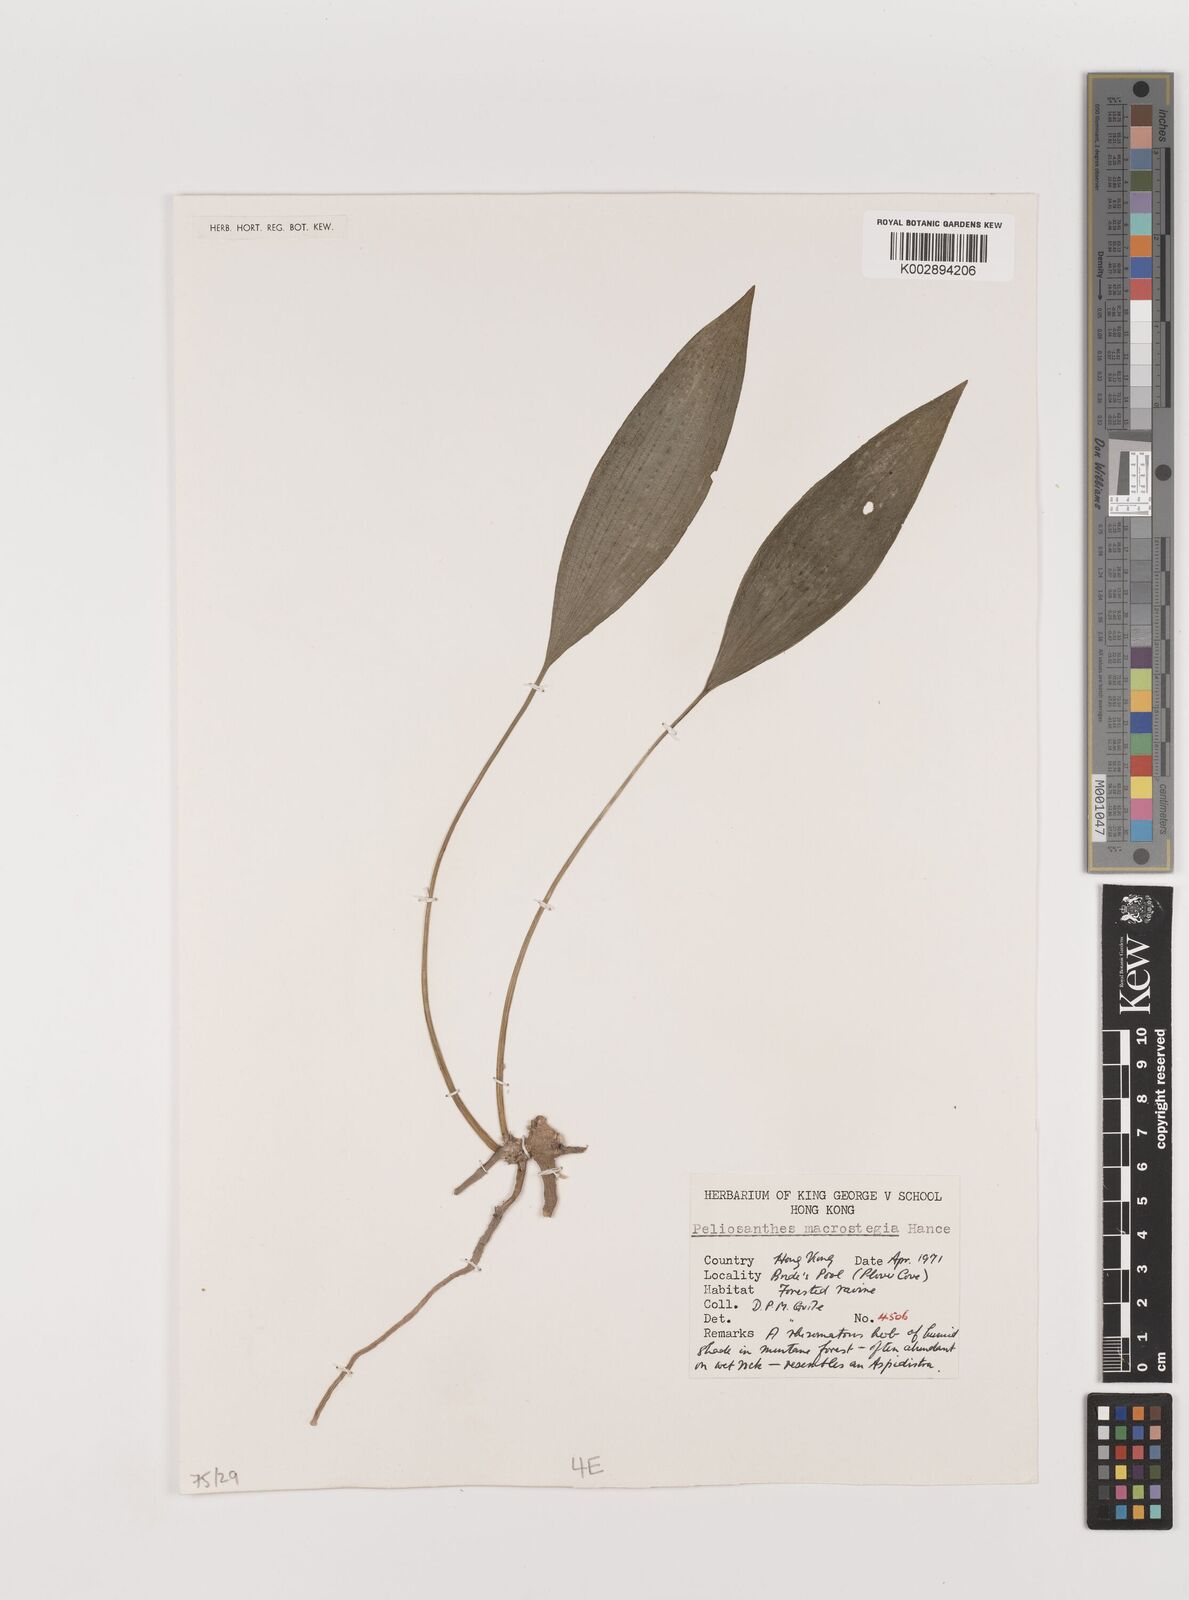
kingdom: Plantae
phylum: Tracheophyta
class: Liliopsida
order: Asparagales
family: Asparagaceae
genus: Peliosanthes
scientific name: Peliosanthes teta
